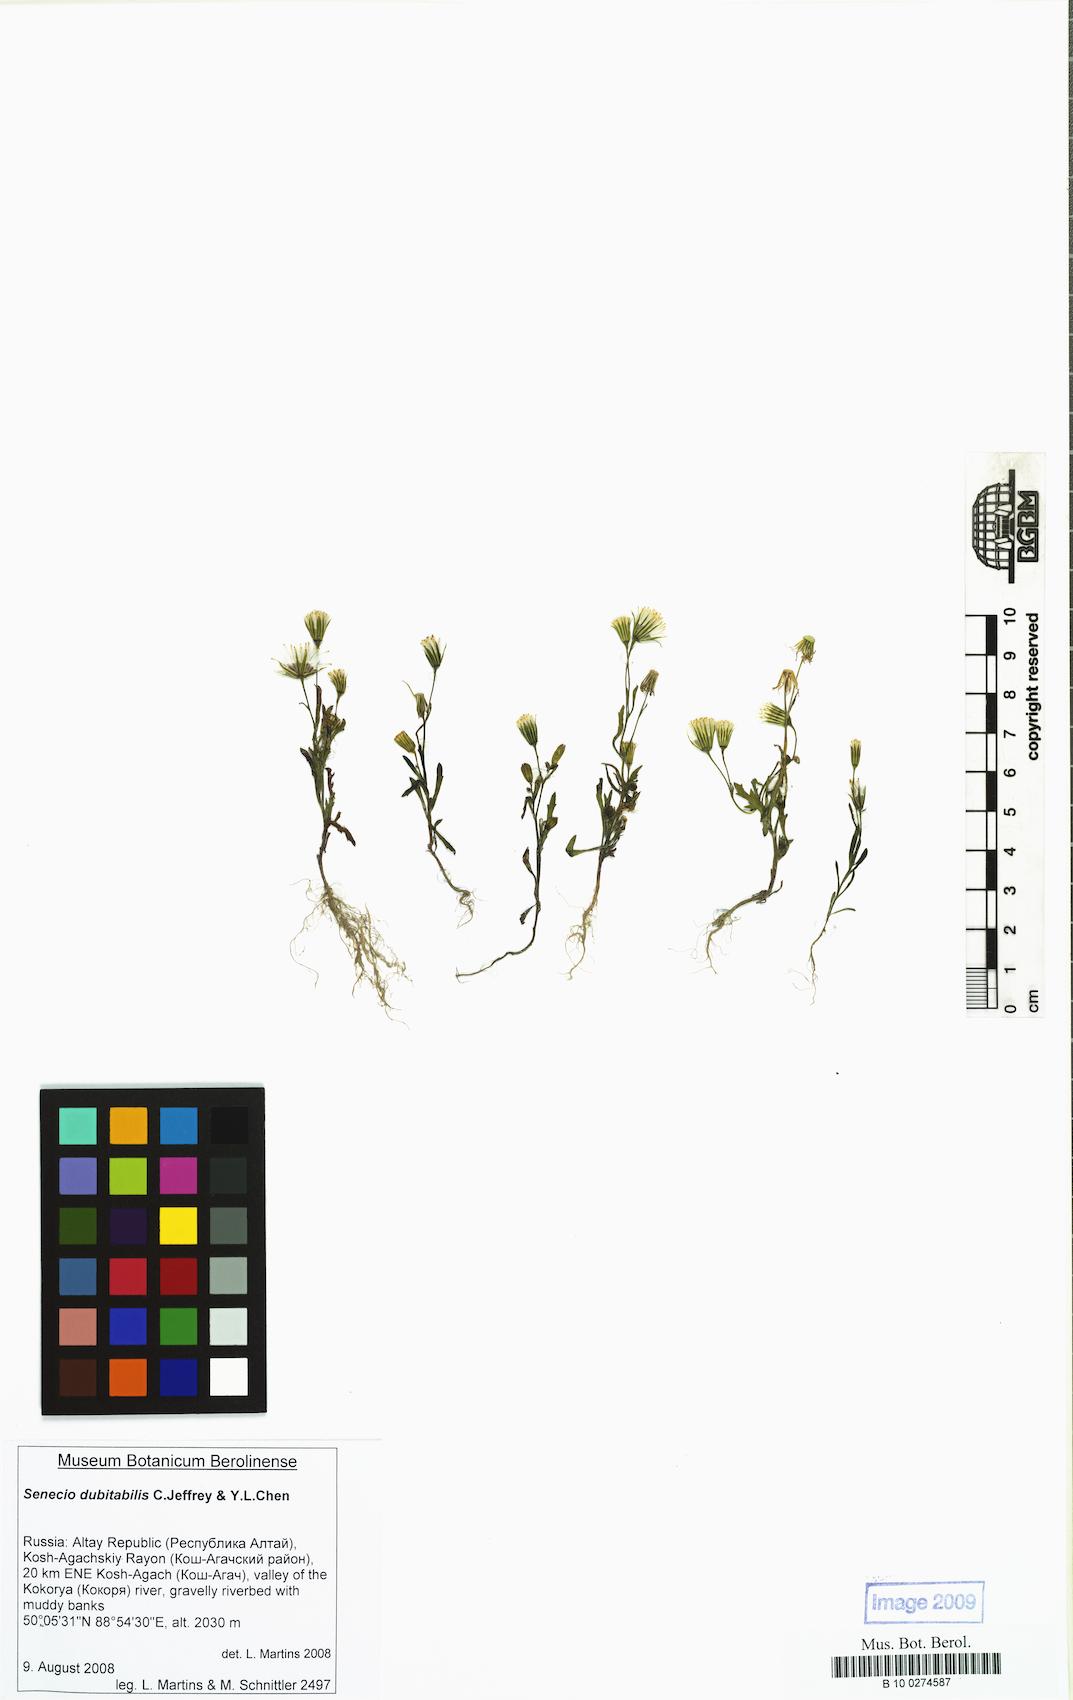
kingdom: Plantae
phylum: Tracheophyta
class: Magnoliopsida
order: Asterales
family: Asteraceae
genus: Senecio
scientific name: Senecio dubitabilis
